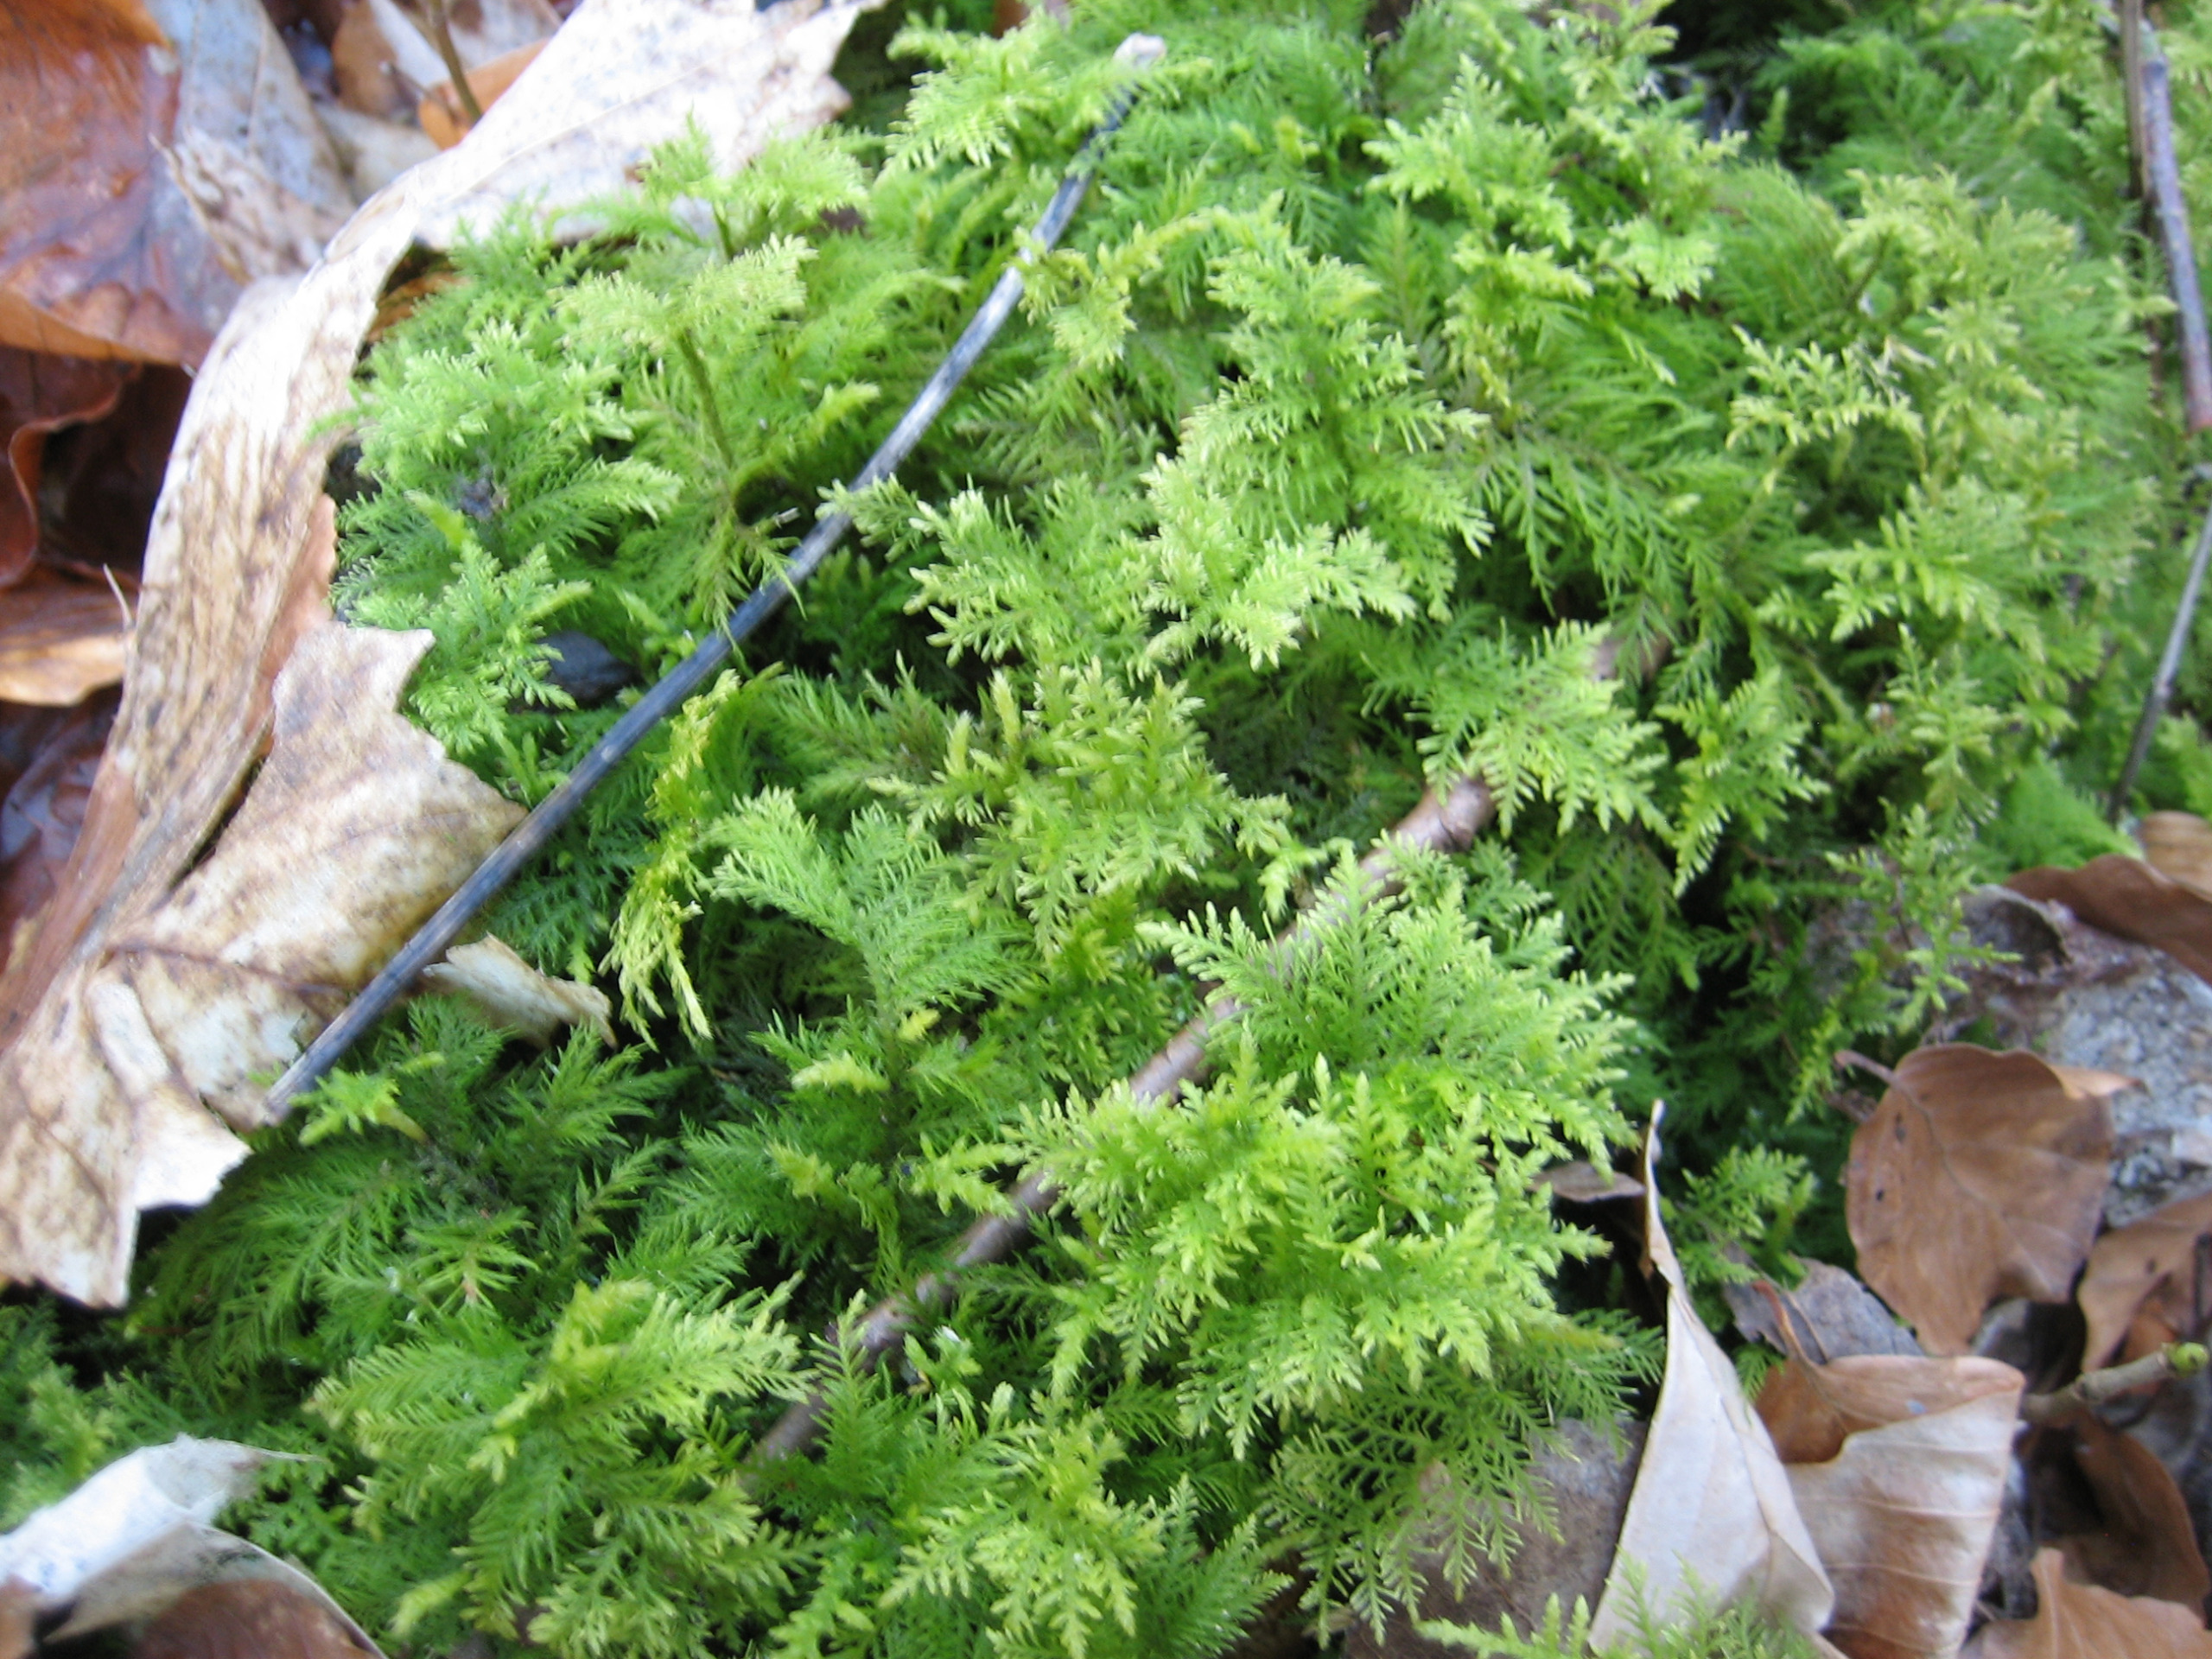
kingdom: Plantae
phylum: Bryophyta
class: Bryopsida
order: Hypnales
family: Thuidiaceae
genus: Thuidium
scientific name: Thuidium tamariscinum
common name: Pryd-bregnemos
